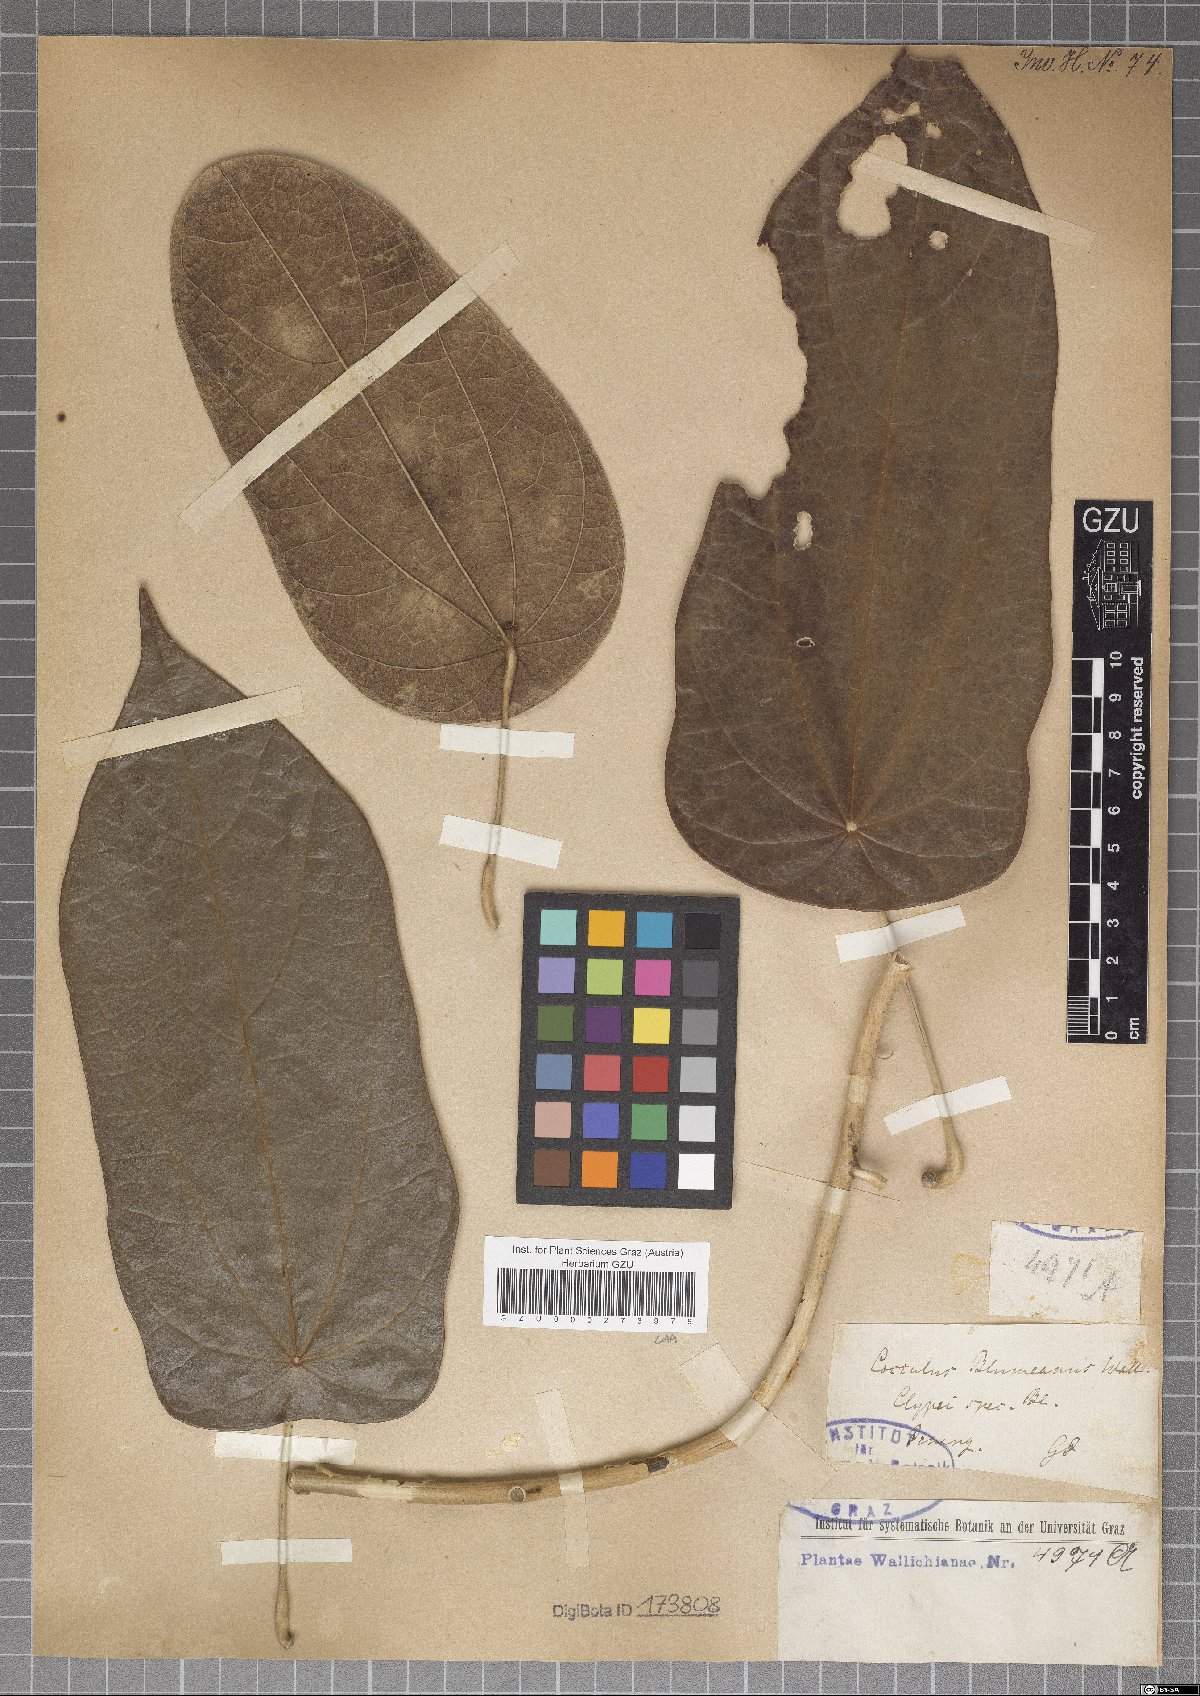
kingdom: Plantae
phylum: Tracheophyta
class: Magnoliopsida
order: Ranunculales
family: Menispermaceae
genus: Cocculus
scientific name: Cocculus blumeanus
